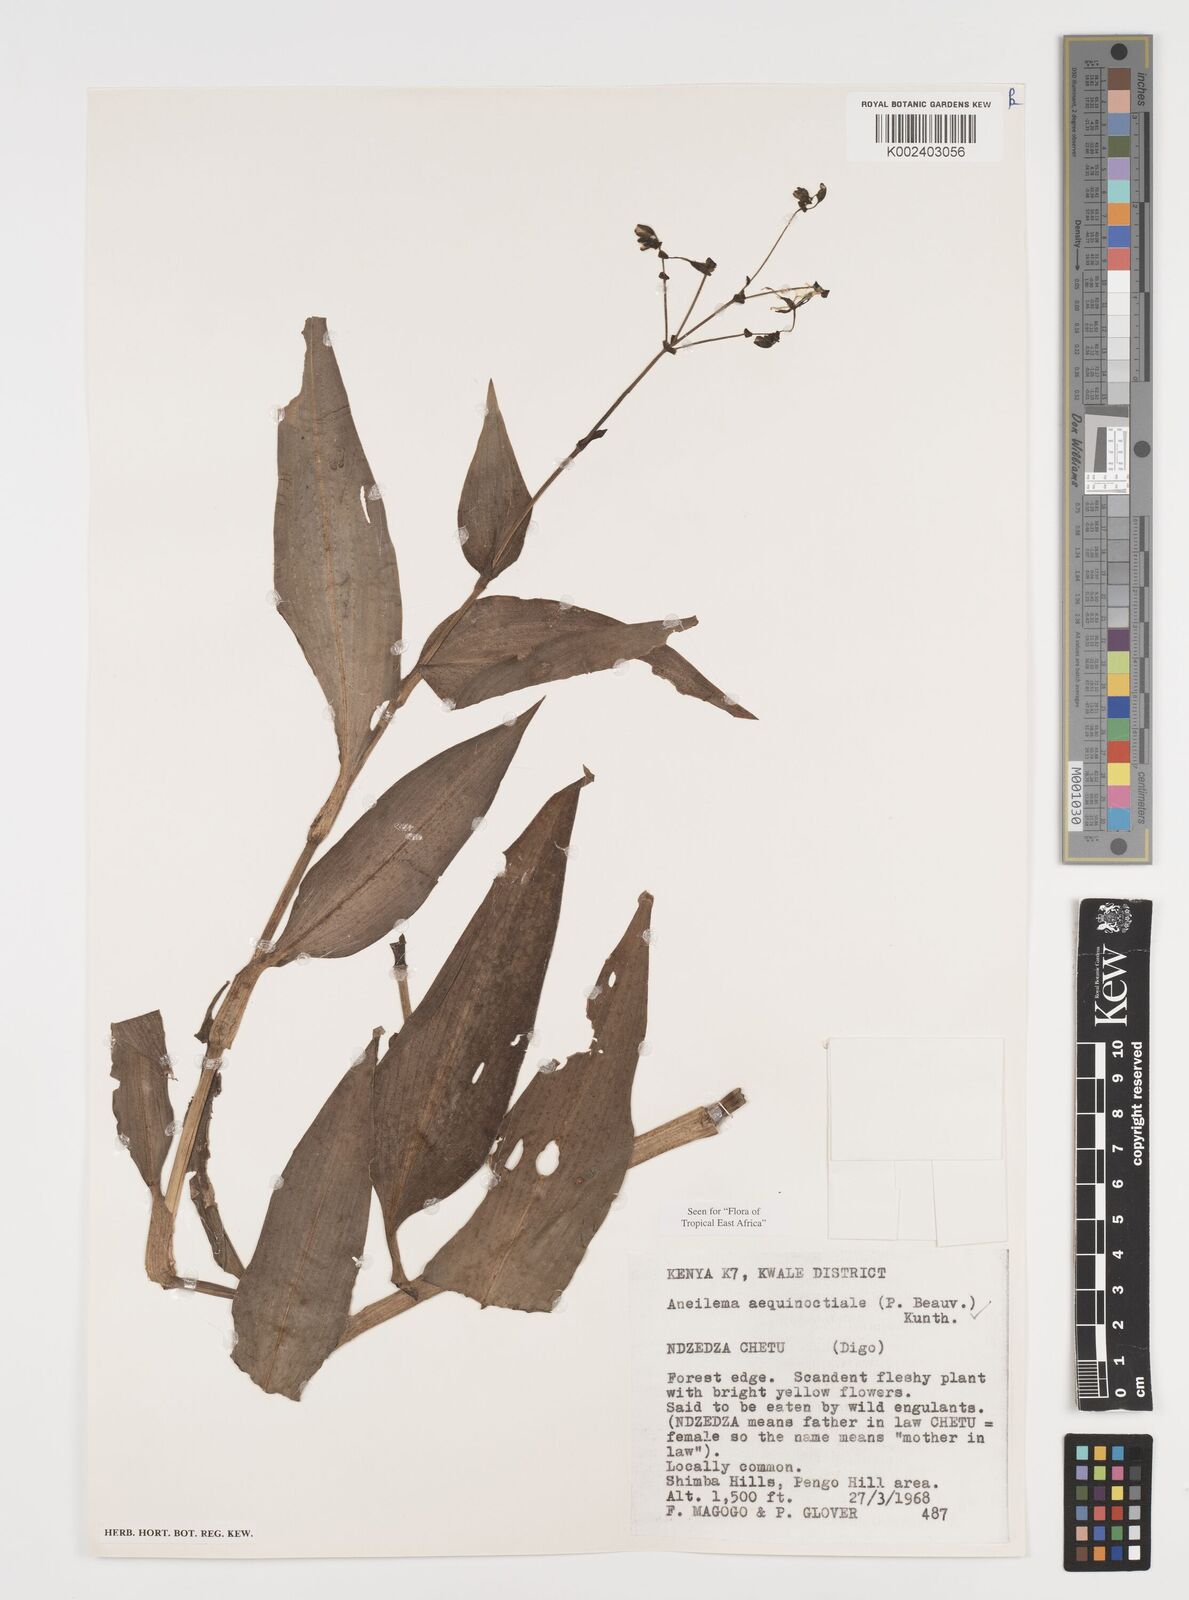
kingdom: Plantae
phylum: Tracheophyta
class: Liliopsida
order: Commelinales
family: Commelinaceae
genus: Aneilema
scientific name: Aneilema aequinoctiale
